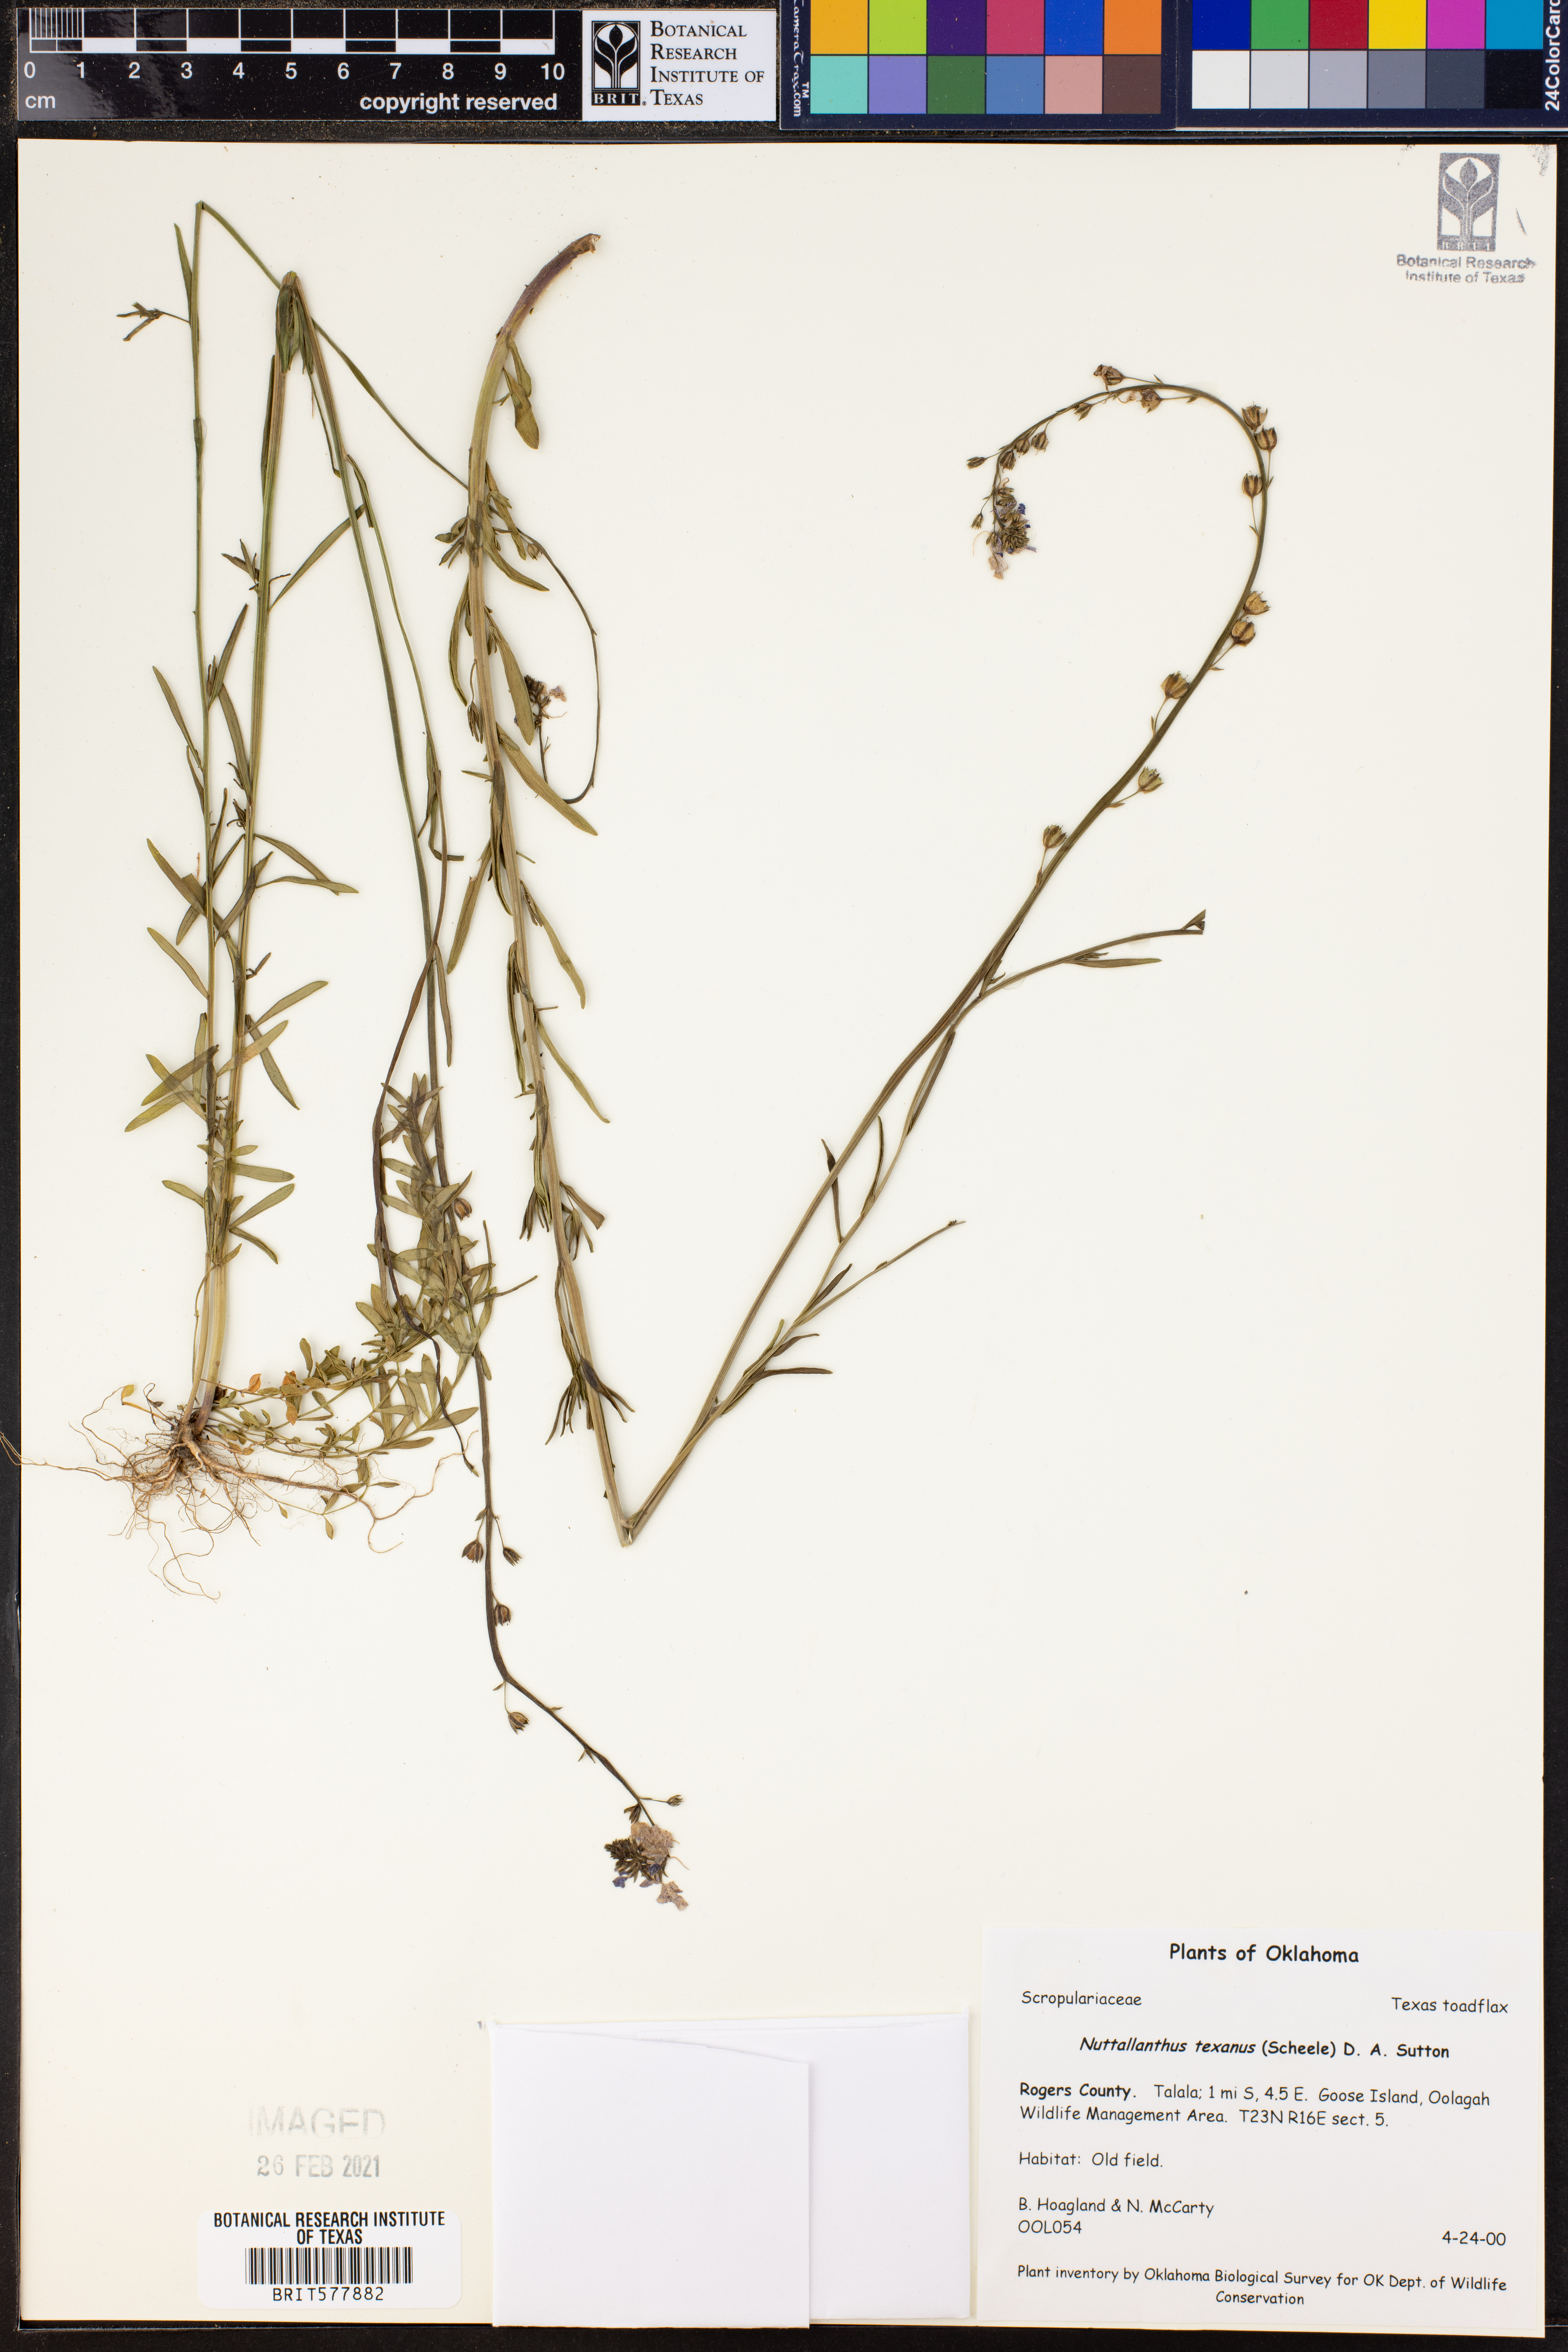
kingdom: Plantae
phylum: Tracheophyta
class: Magnoliopsida
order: Lamiales
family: Plantaginaceae
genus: Nuttallanthus
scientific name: Nuttallanthus texanus
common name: Texas toadflax
